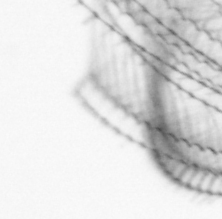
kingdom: Animalia
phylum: Arthropoda
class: Maxillopoda
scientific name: Maxillopoda
